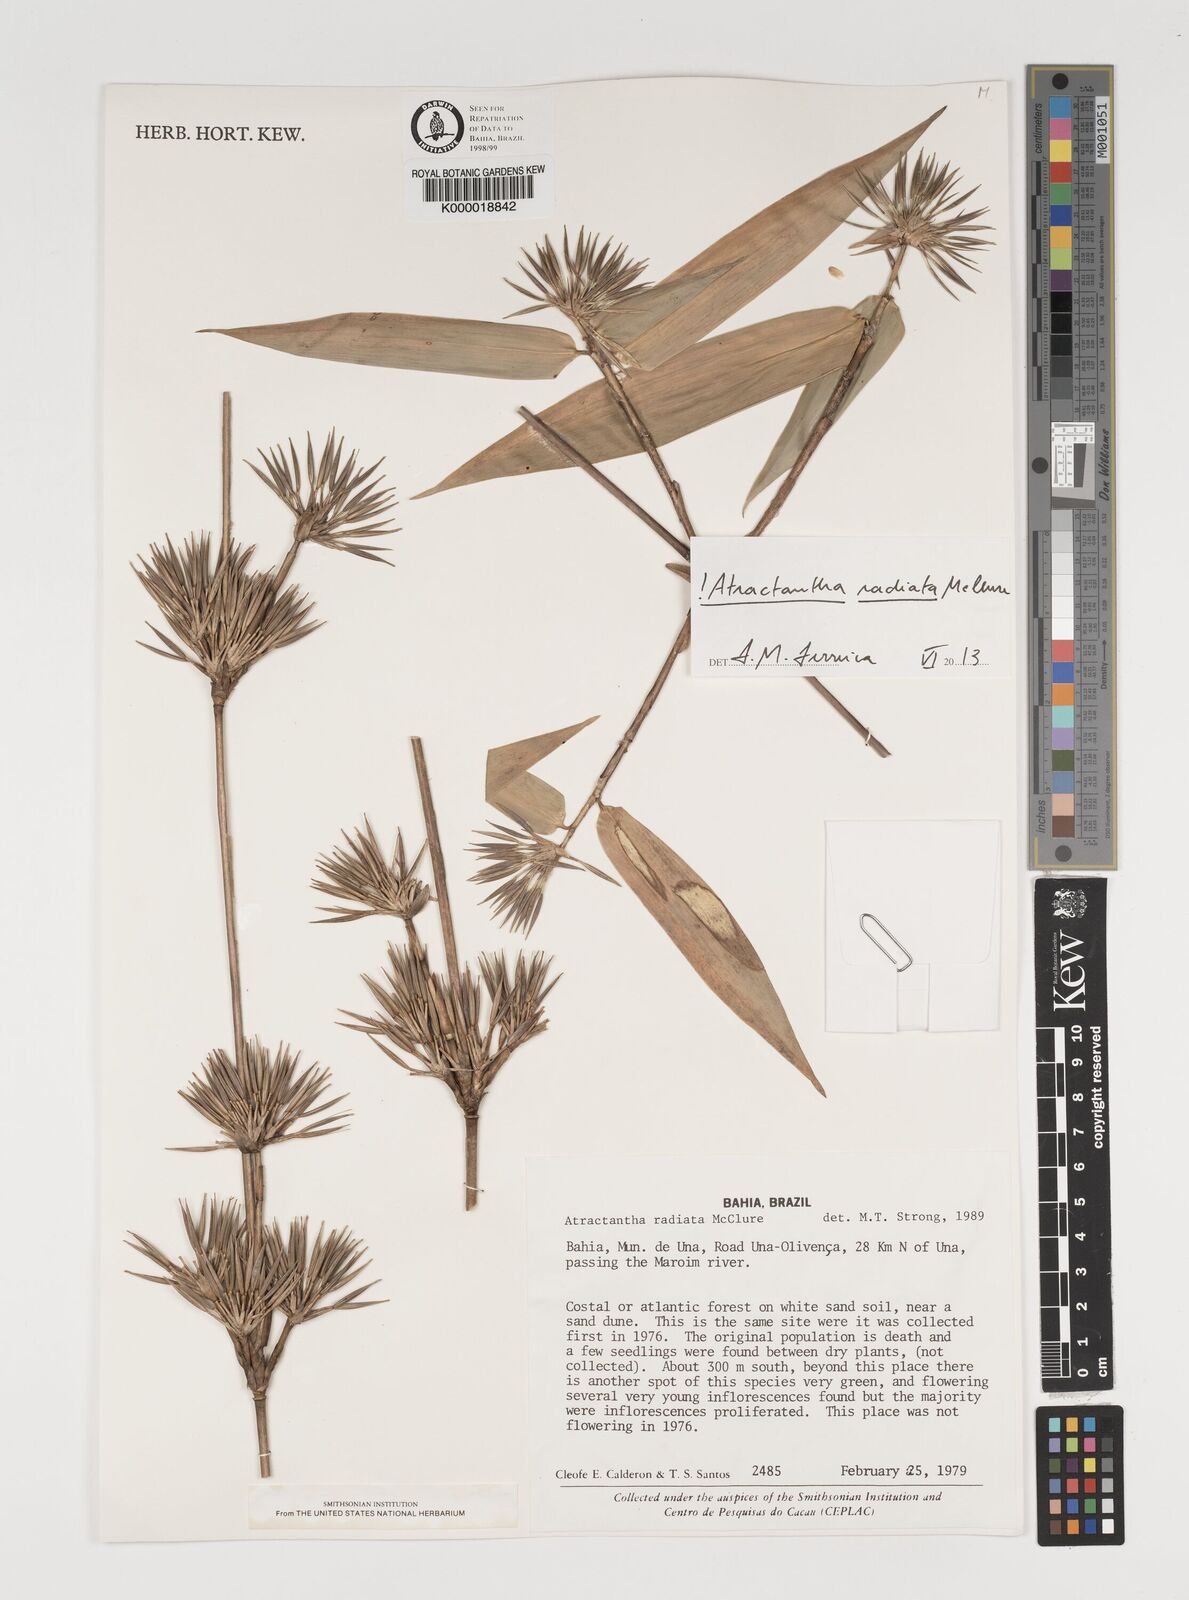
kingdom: Plantae
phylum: Tracheophyta
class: Liliopsida
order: Poales
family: Poaceae
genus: Atractantha
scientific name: Atractantha radiata
